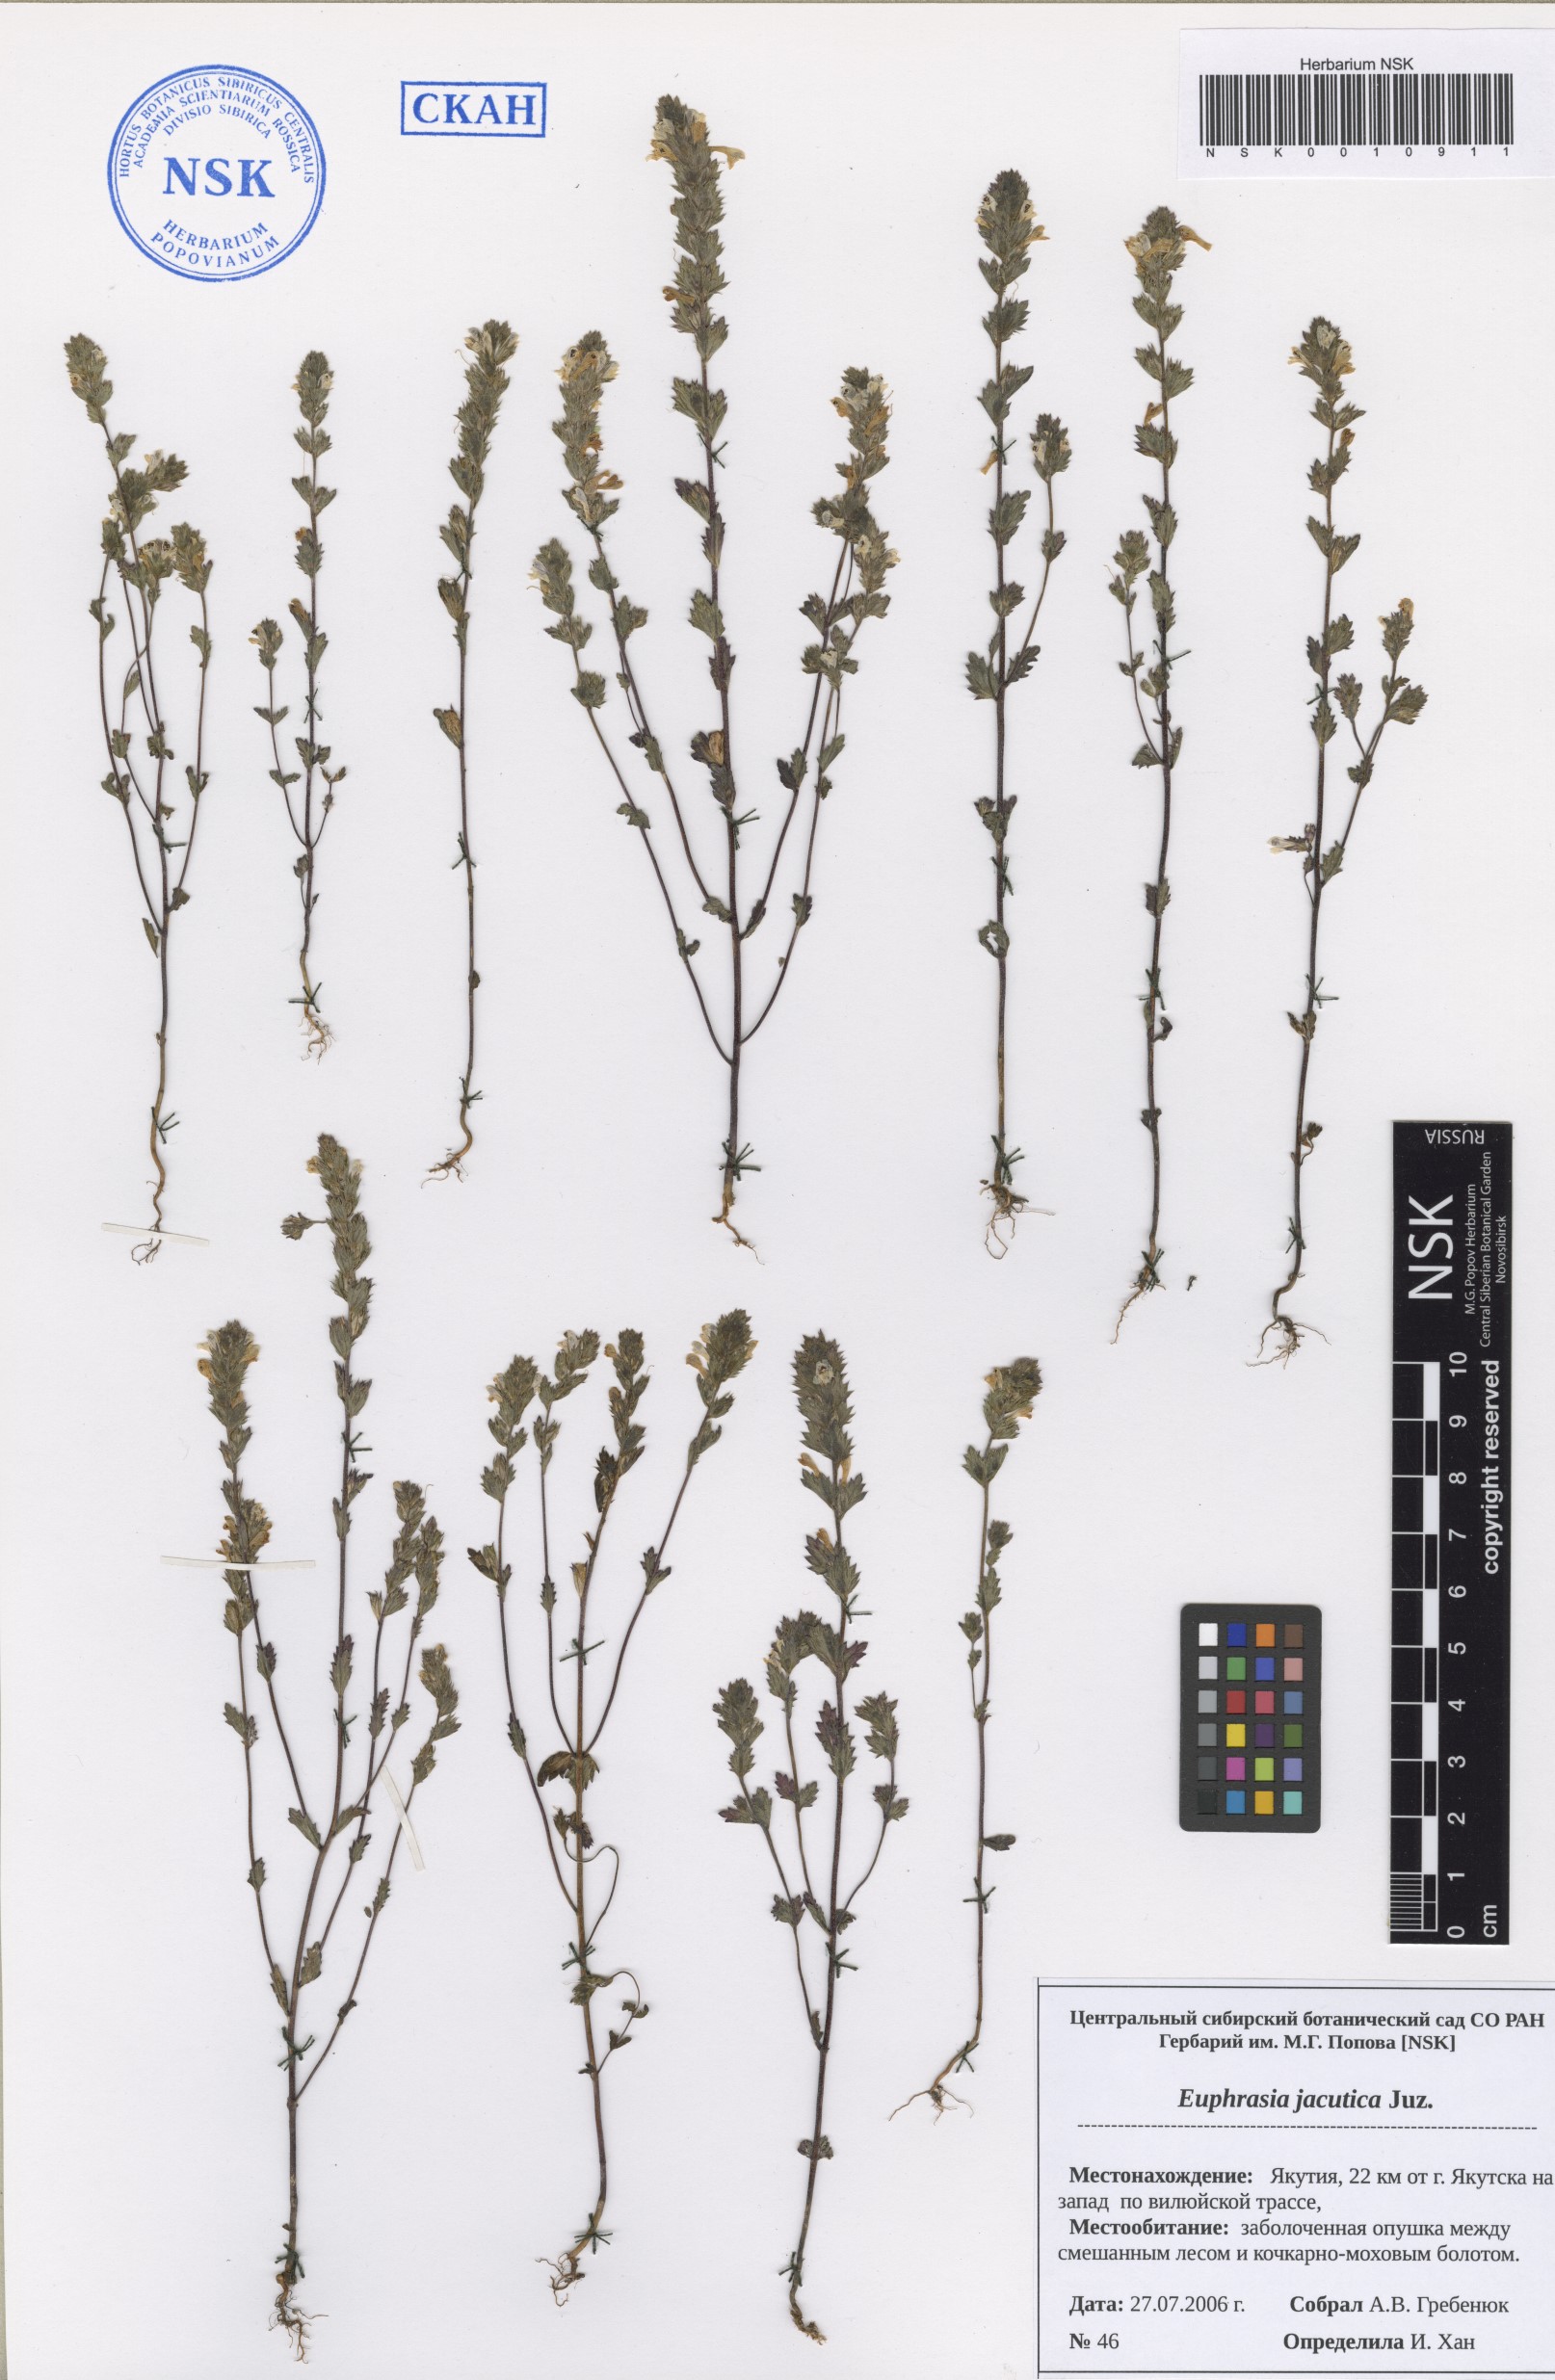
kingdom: Plantae
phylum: Tracheophyta
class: Magnoliopsida
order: Lamiales
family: Orobanchaceae
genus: Euphrasia
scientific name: Euphrasia jacutica
